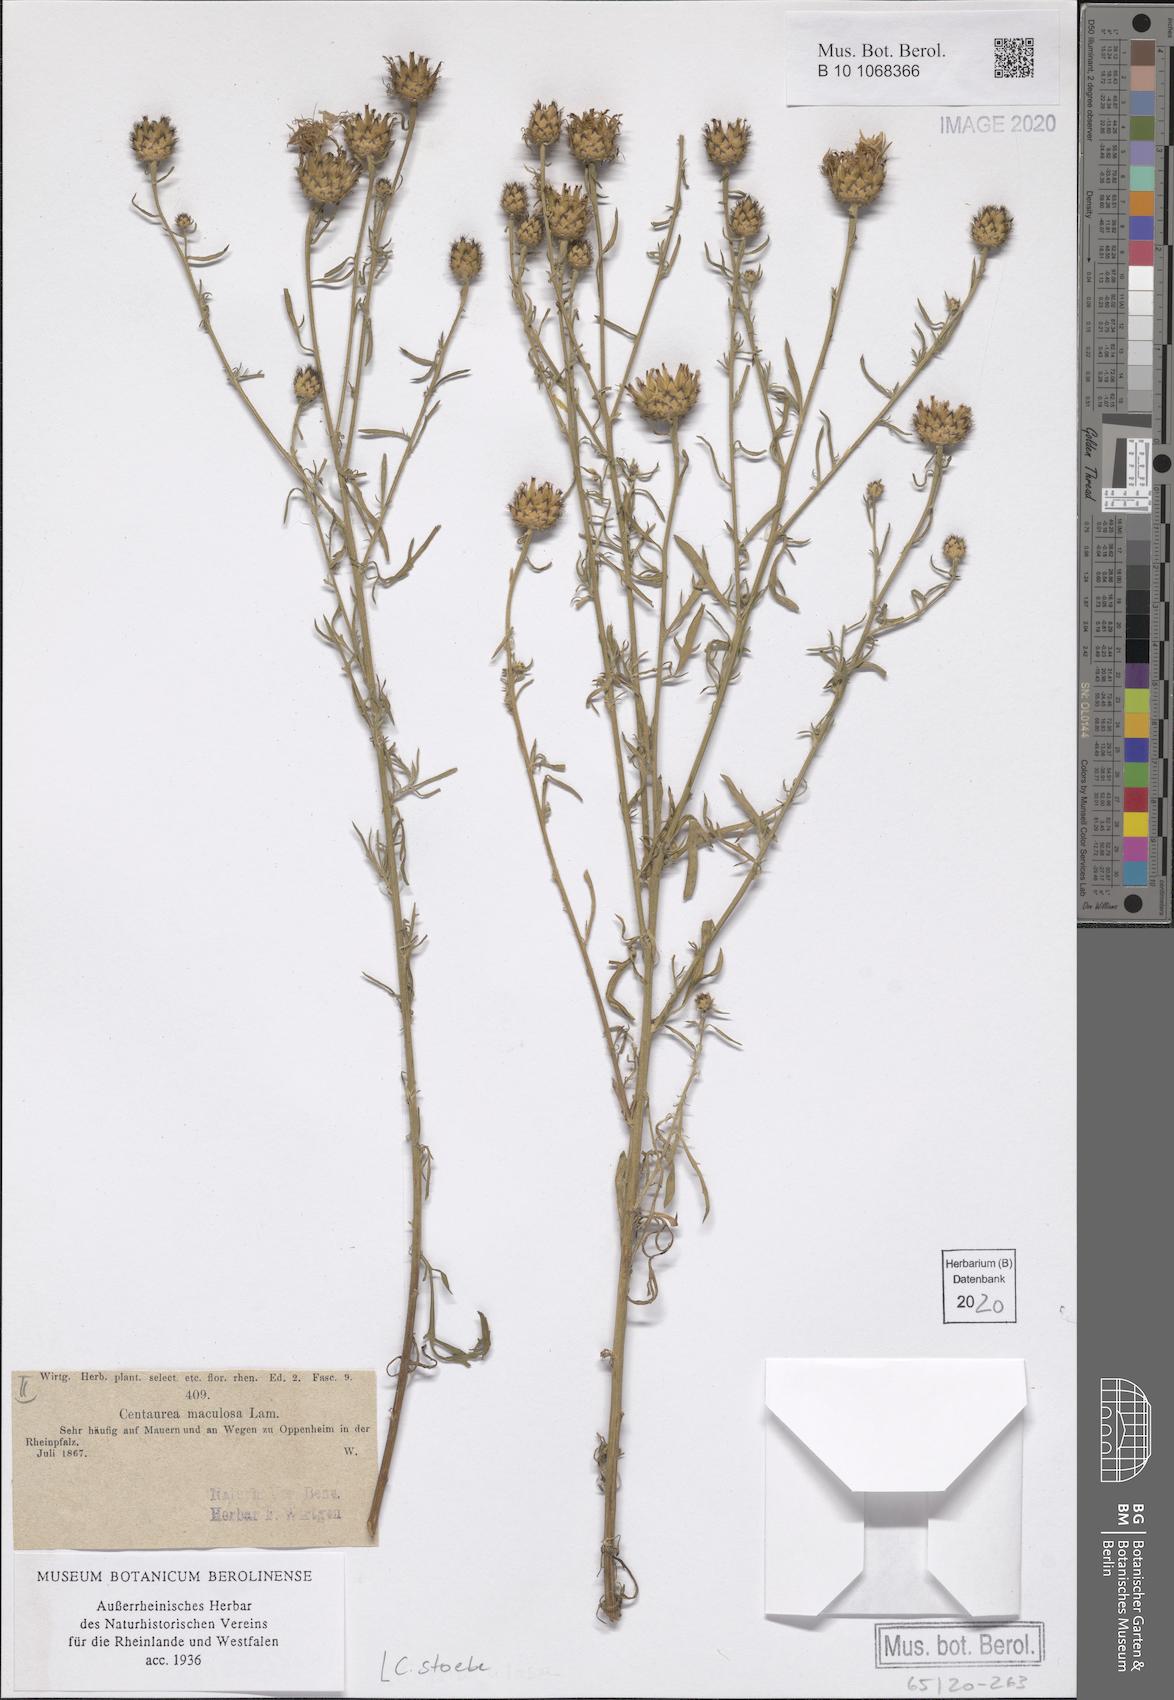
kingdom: Plantae
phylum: Tracheophyta
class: Magnoliopsida
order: Asterales
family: Asteraceae
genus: Centaurea
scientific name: Centaurea australis
